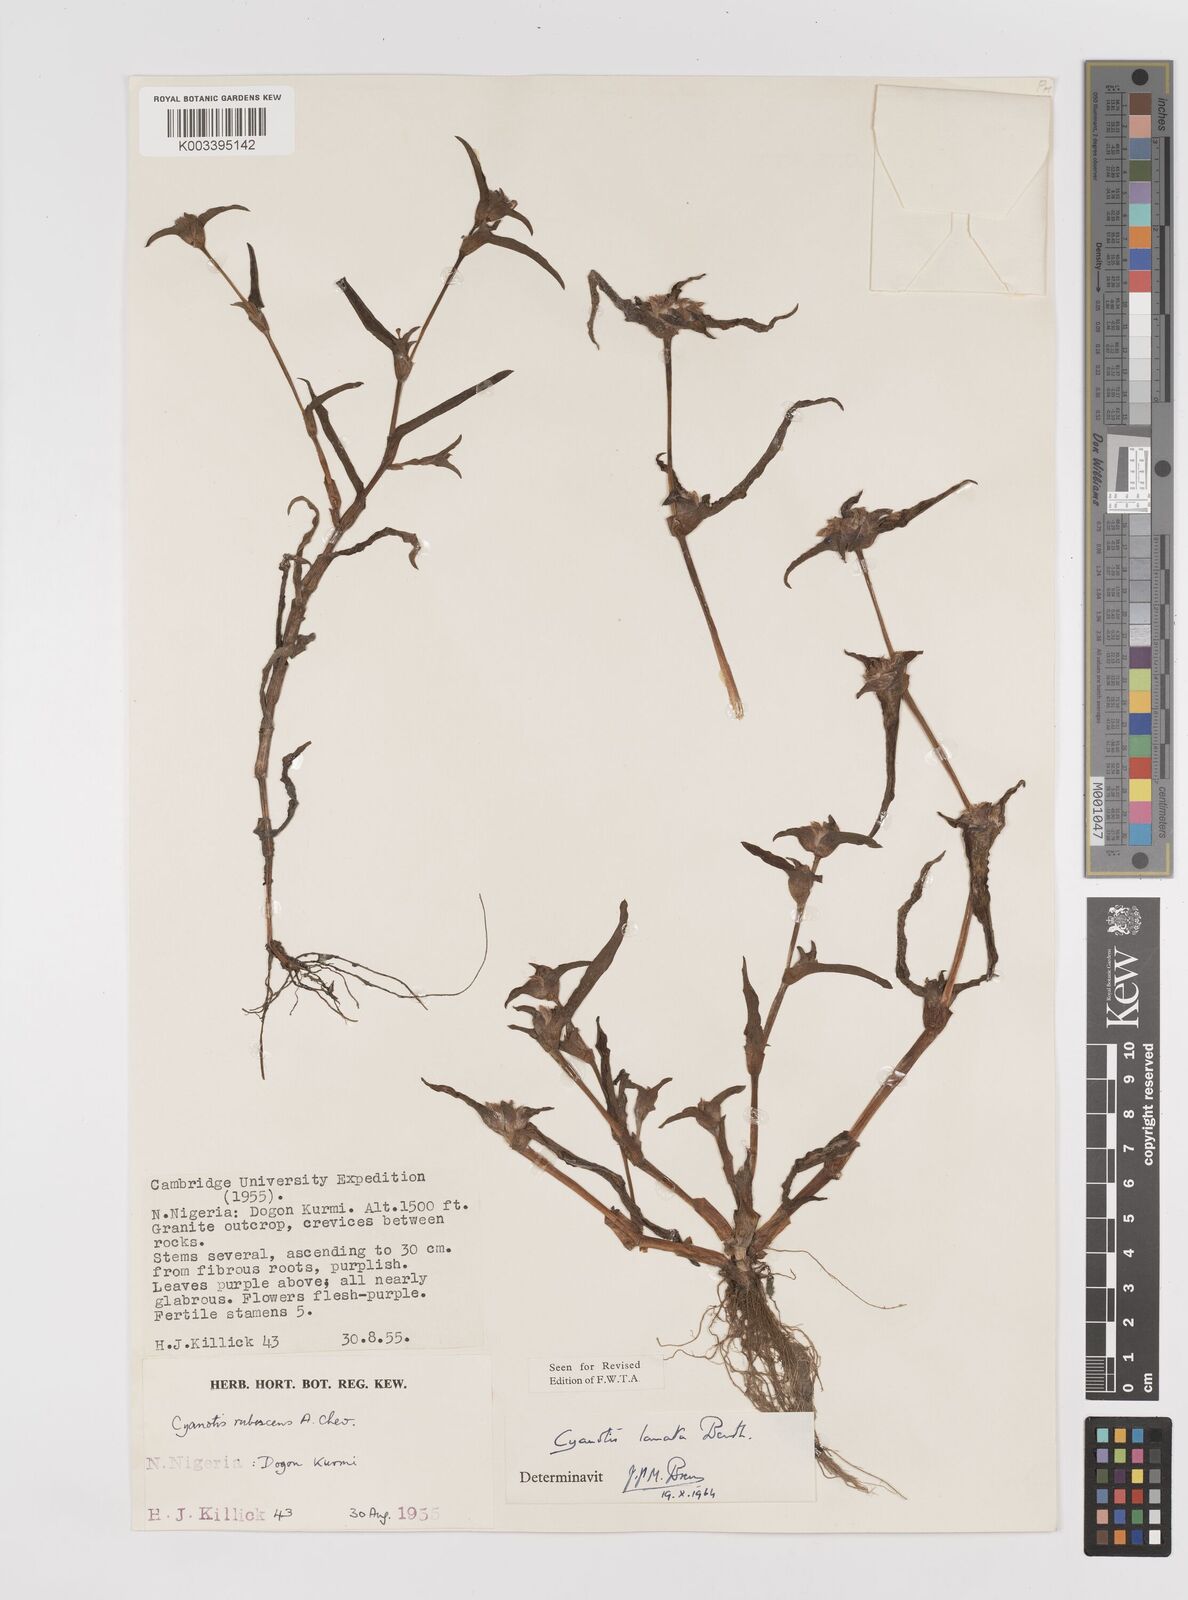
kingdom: Plantae
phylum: Tracheophyta
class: Liliopsida
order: Commelinales
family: Commelinaceae
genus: Cyanotis
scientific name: Cyanotis lanata
